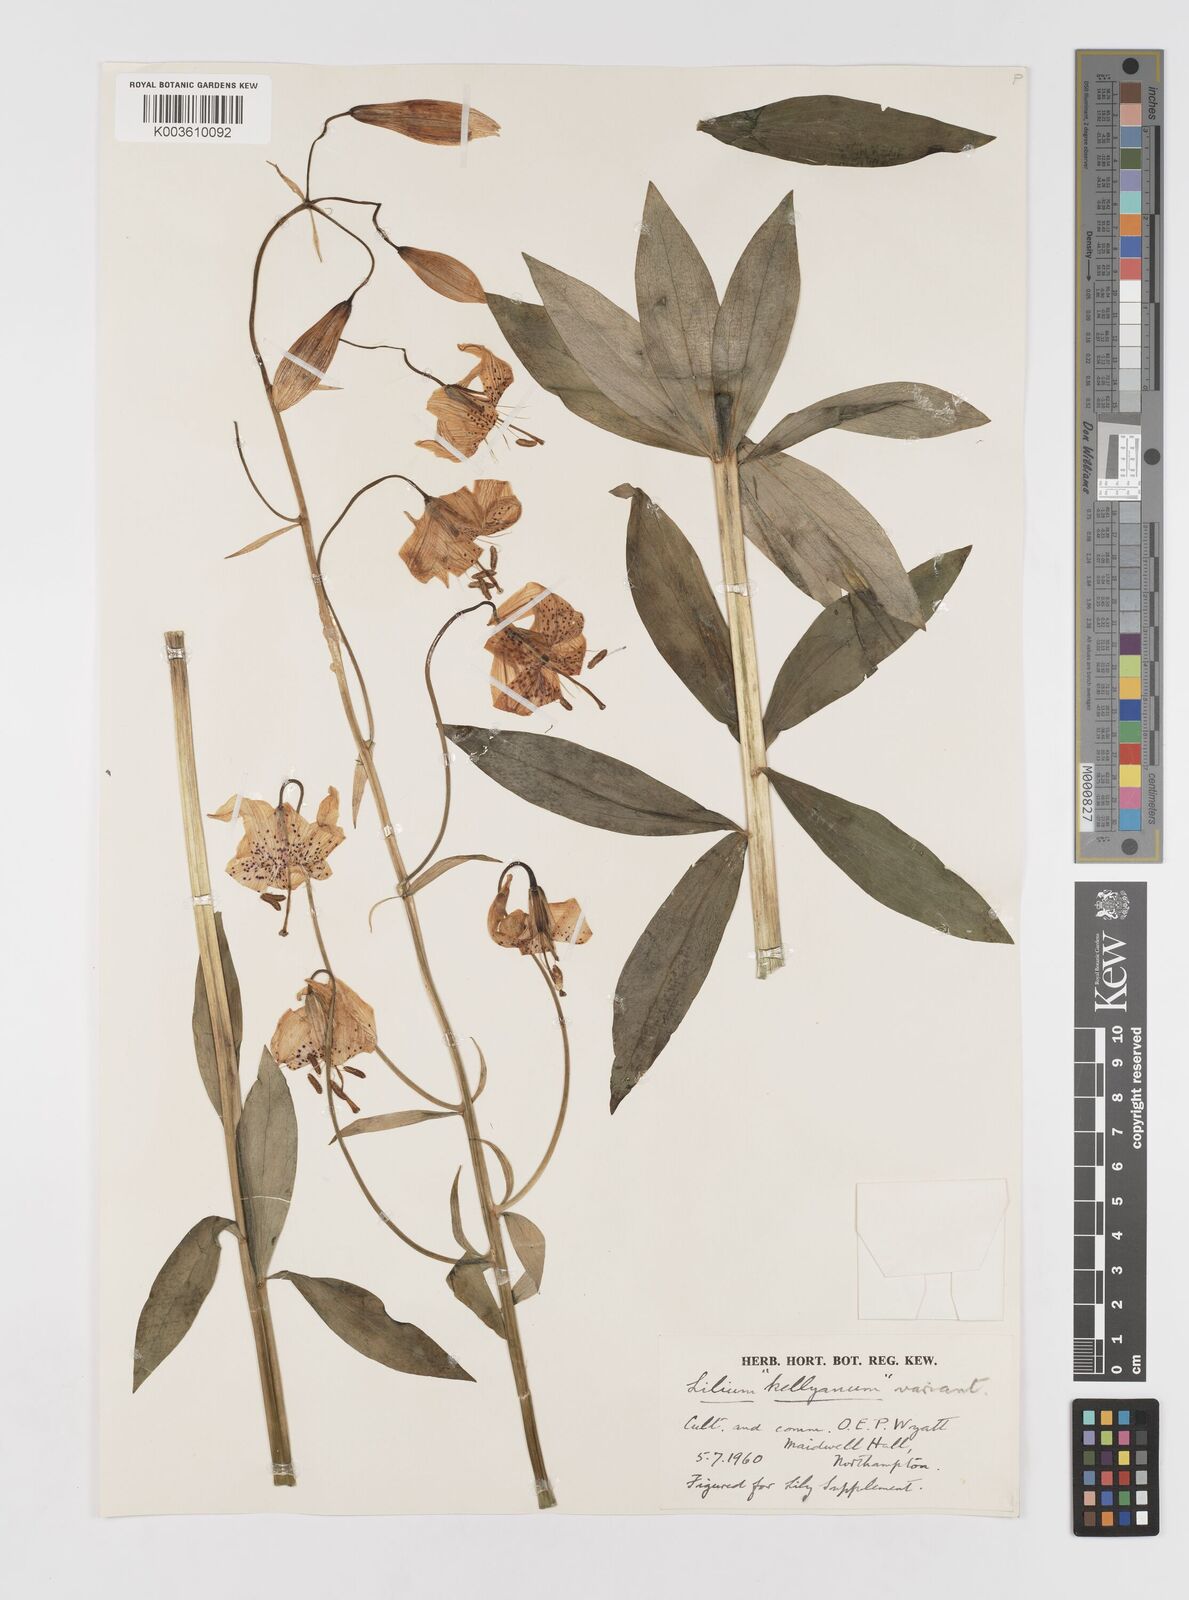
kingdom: Plantae
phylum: Tracheophyta
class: Liliopsida
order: Liliales
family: Liliaceae
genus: Lilium
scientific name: Lilium kelleyanum
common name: Kelley's lily
